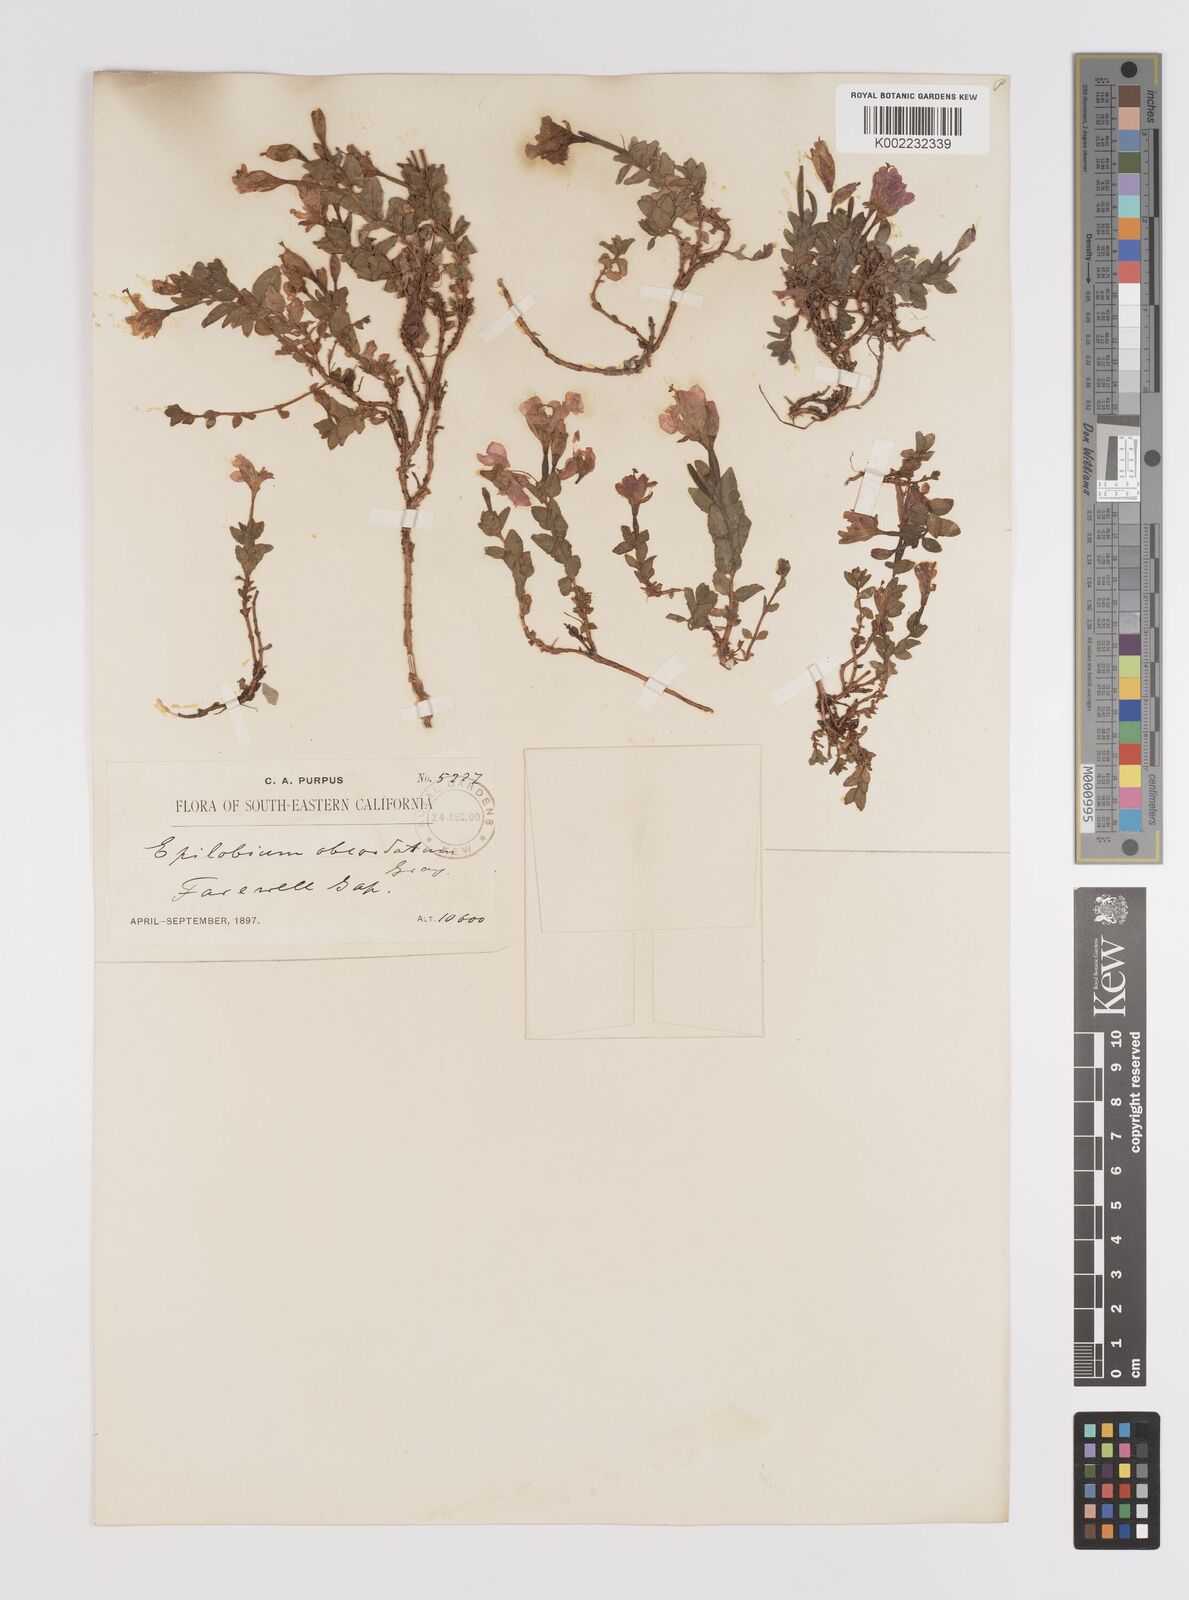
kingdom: Plantae
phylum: Tracheophyta
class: Magnoliopsida
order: Myrtales
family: Onagraceae
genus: Epilobium
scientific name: Epilobium obcordatum
